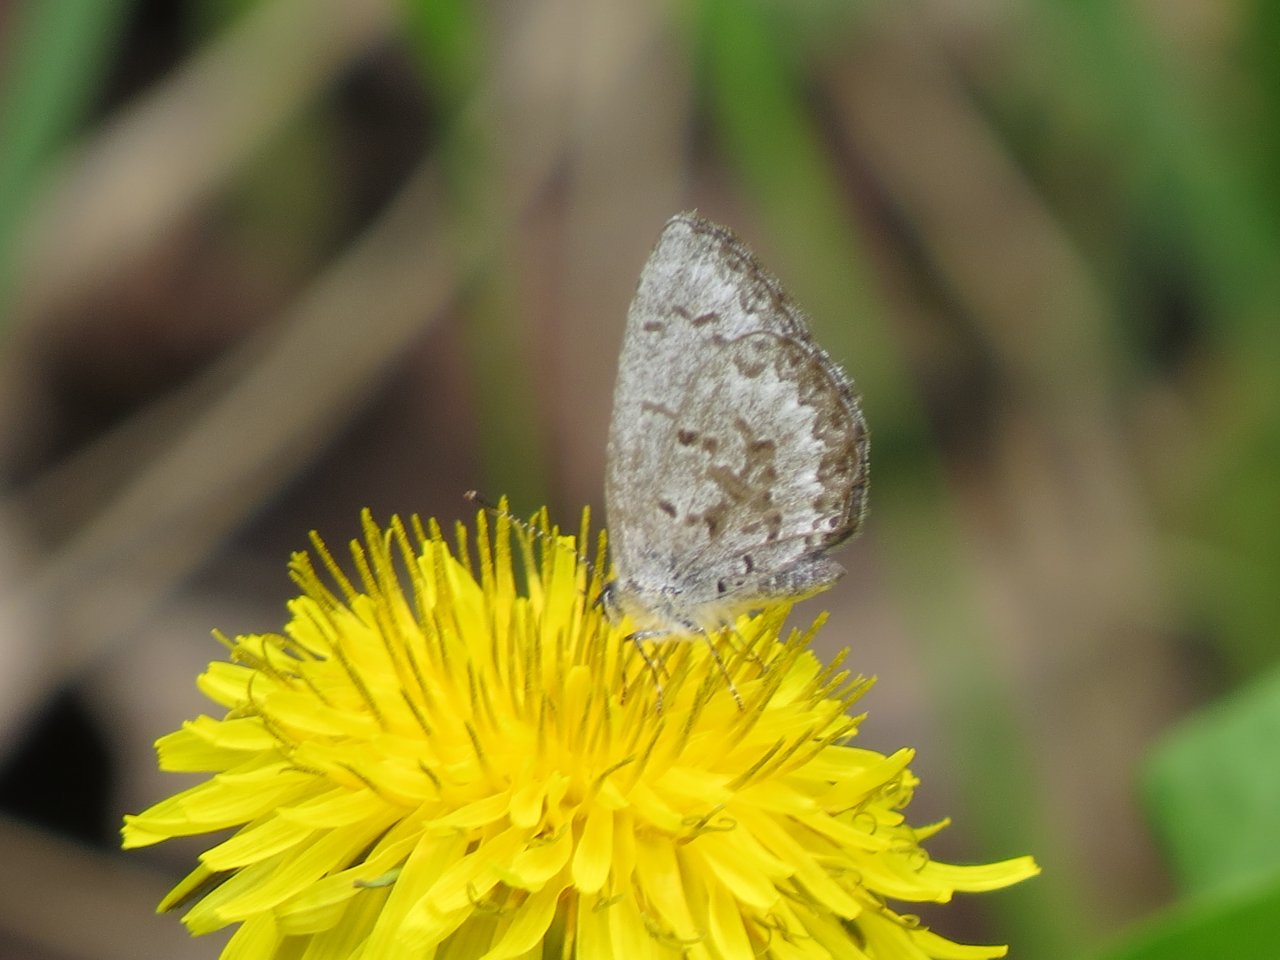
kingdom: Animalia
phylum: Arthropoda
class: Insecta
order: Lepidoptera
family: Lycaenidae
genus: Celastrina
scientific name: Celastrina lucia
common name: Northern Spring Azure
